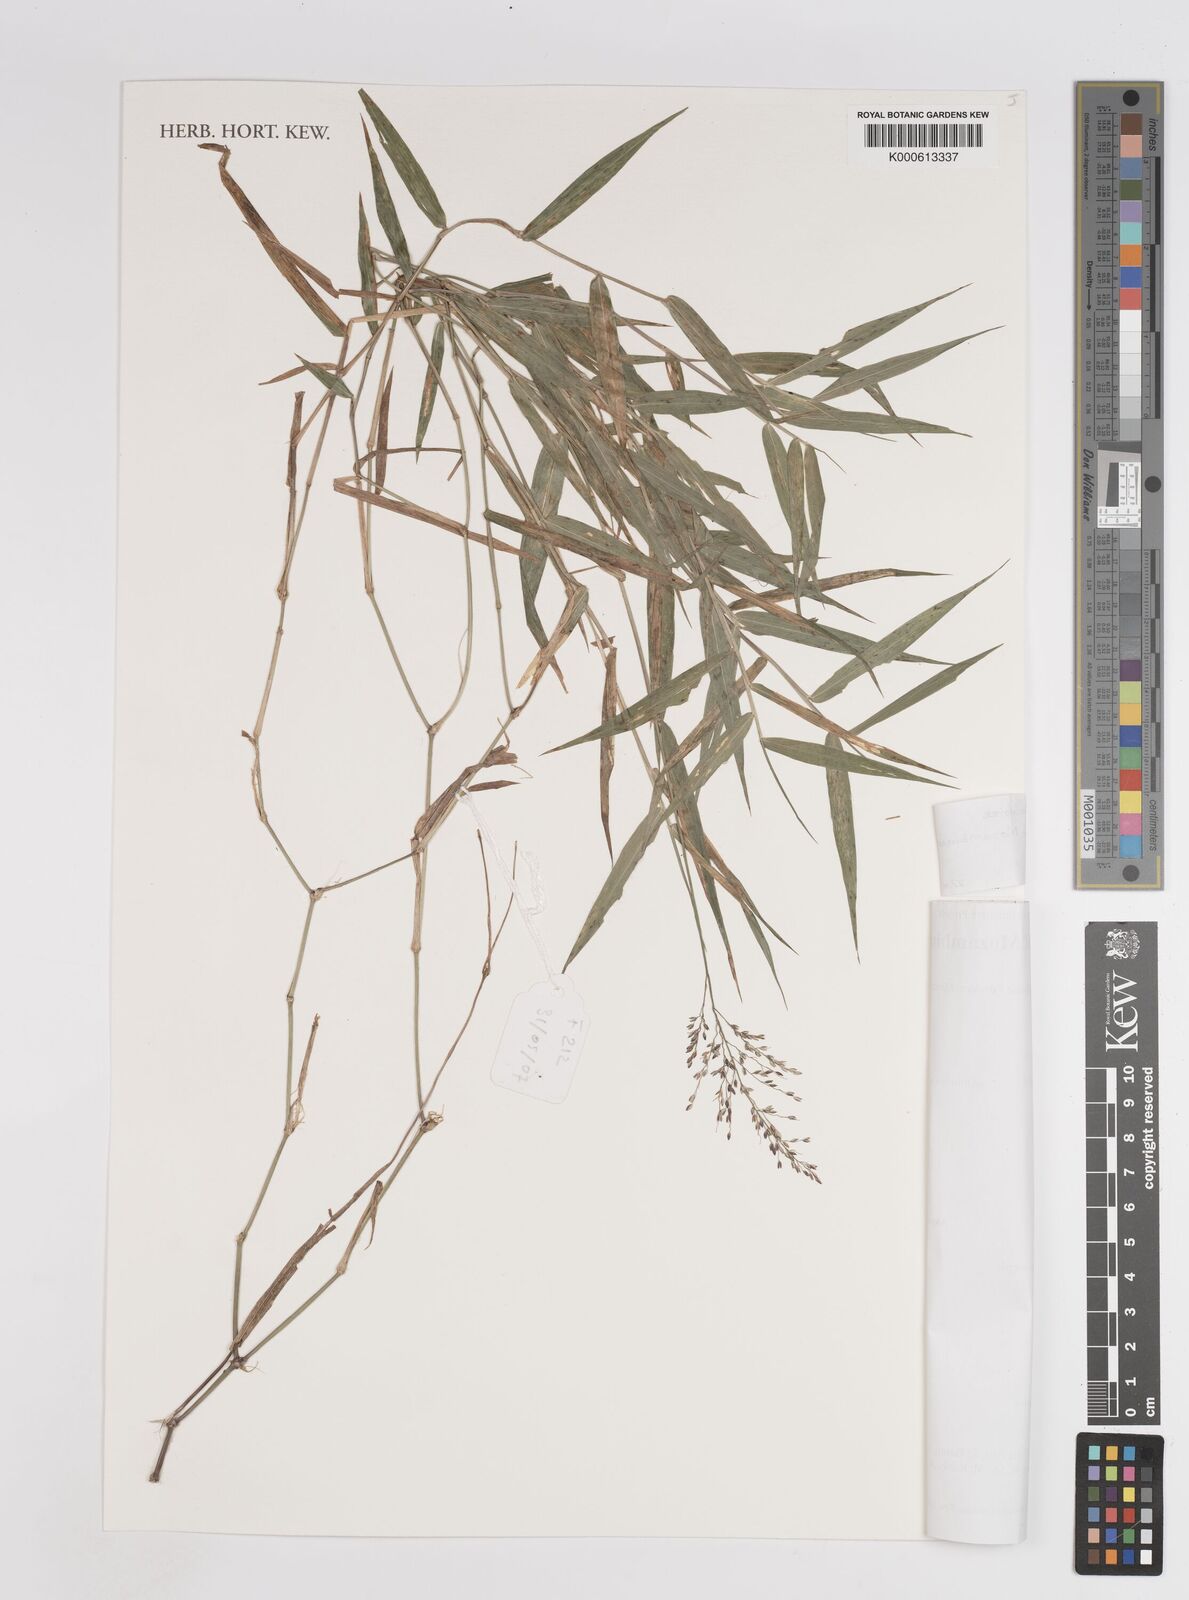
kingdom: Plantae
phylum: Tracheophyta
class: Liliopsida
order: Poales
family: Poaceae
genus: Panicum
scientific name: Panicum wiehei
